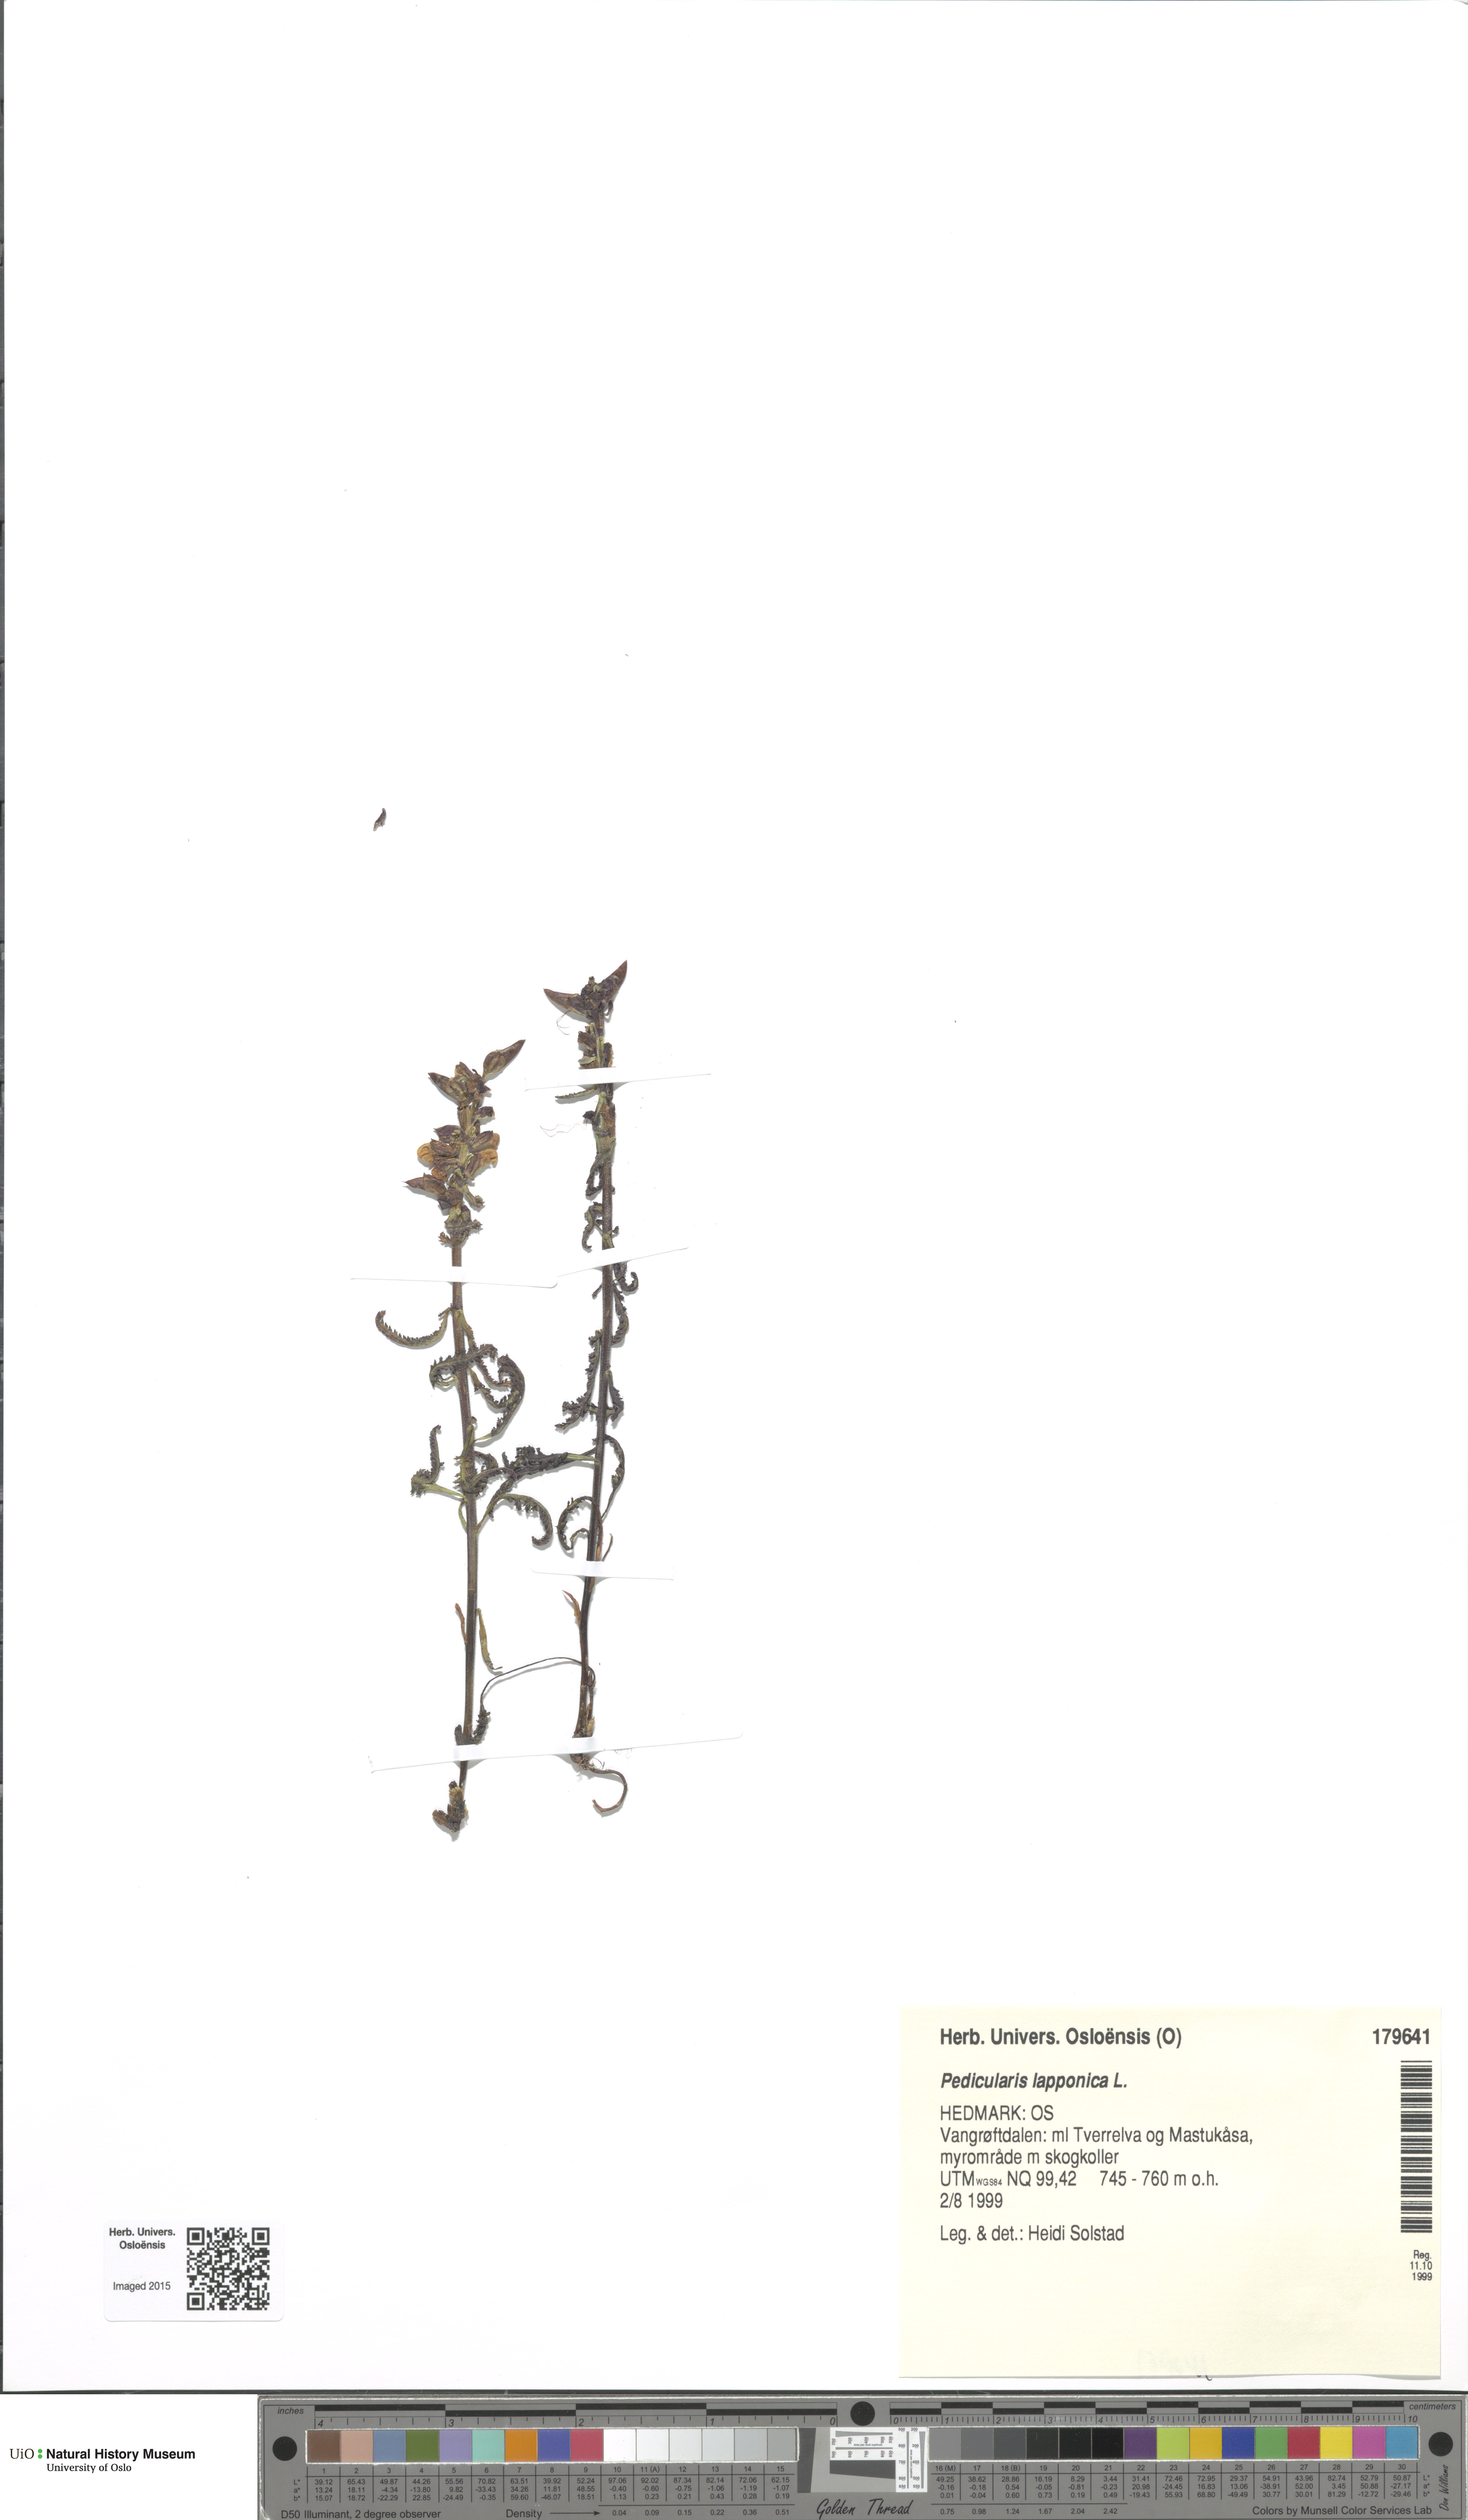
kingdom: Plantae
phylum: Tracheophyta
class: Magnoliopsida
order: Lamiales
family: Orobanchaceae
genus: Pedicularis
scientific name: Pedicularis lapponica
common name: Lapland lousewort
